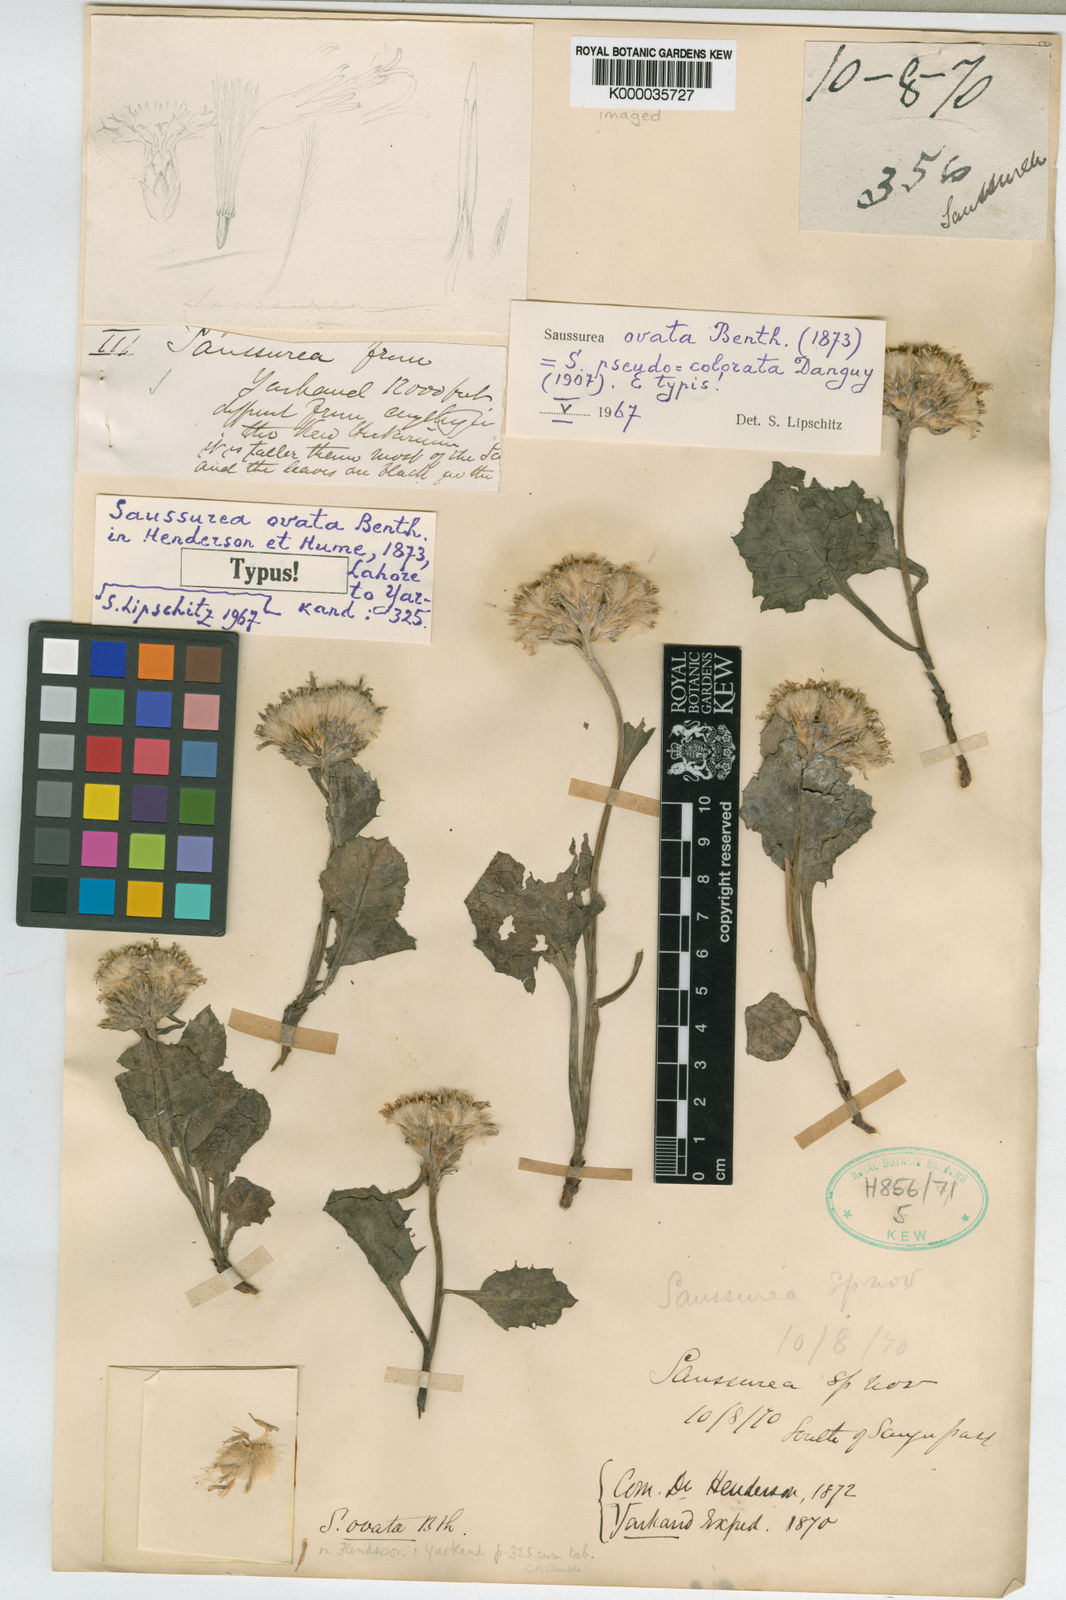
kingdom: Plantae
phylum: Tracheophyta
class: Magnoliopsida
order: Asterales
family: Asteraceae
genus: Saussurea
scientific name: Saussurea ovata
